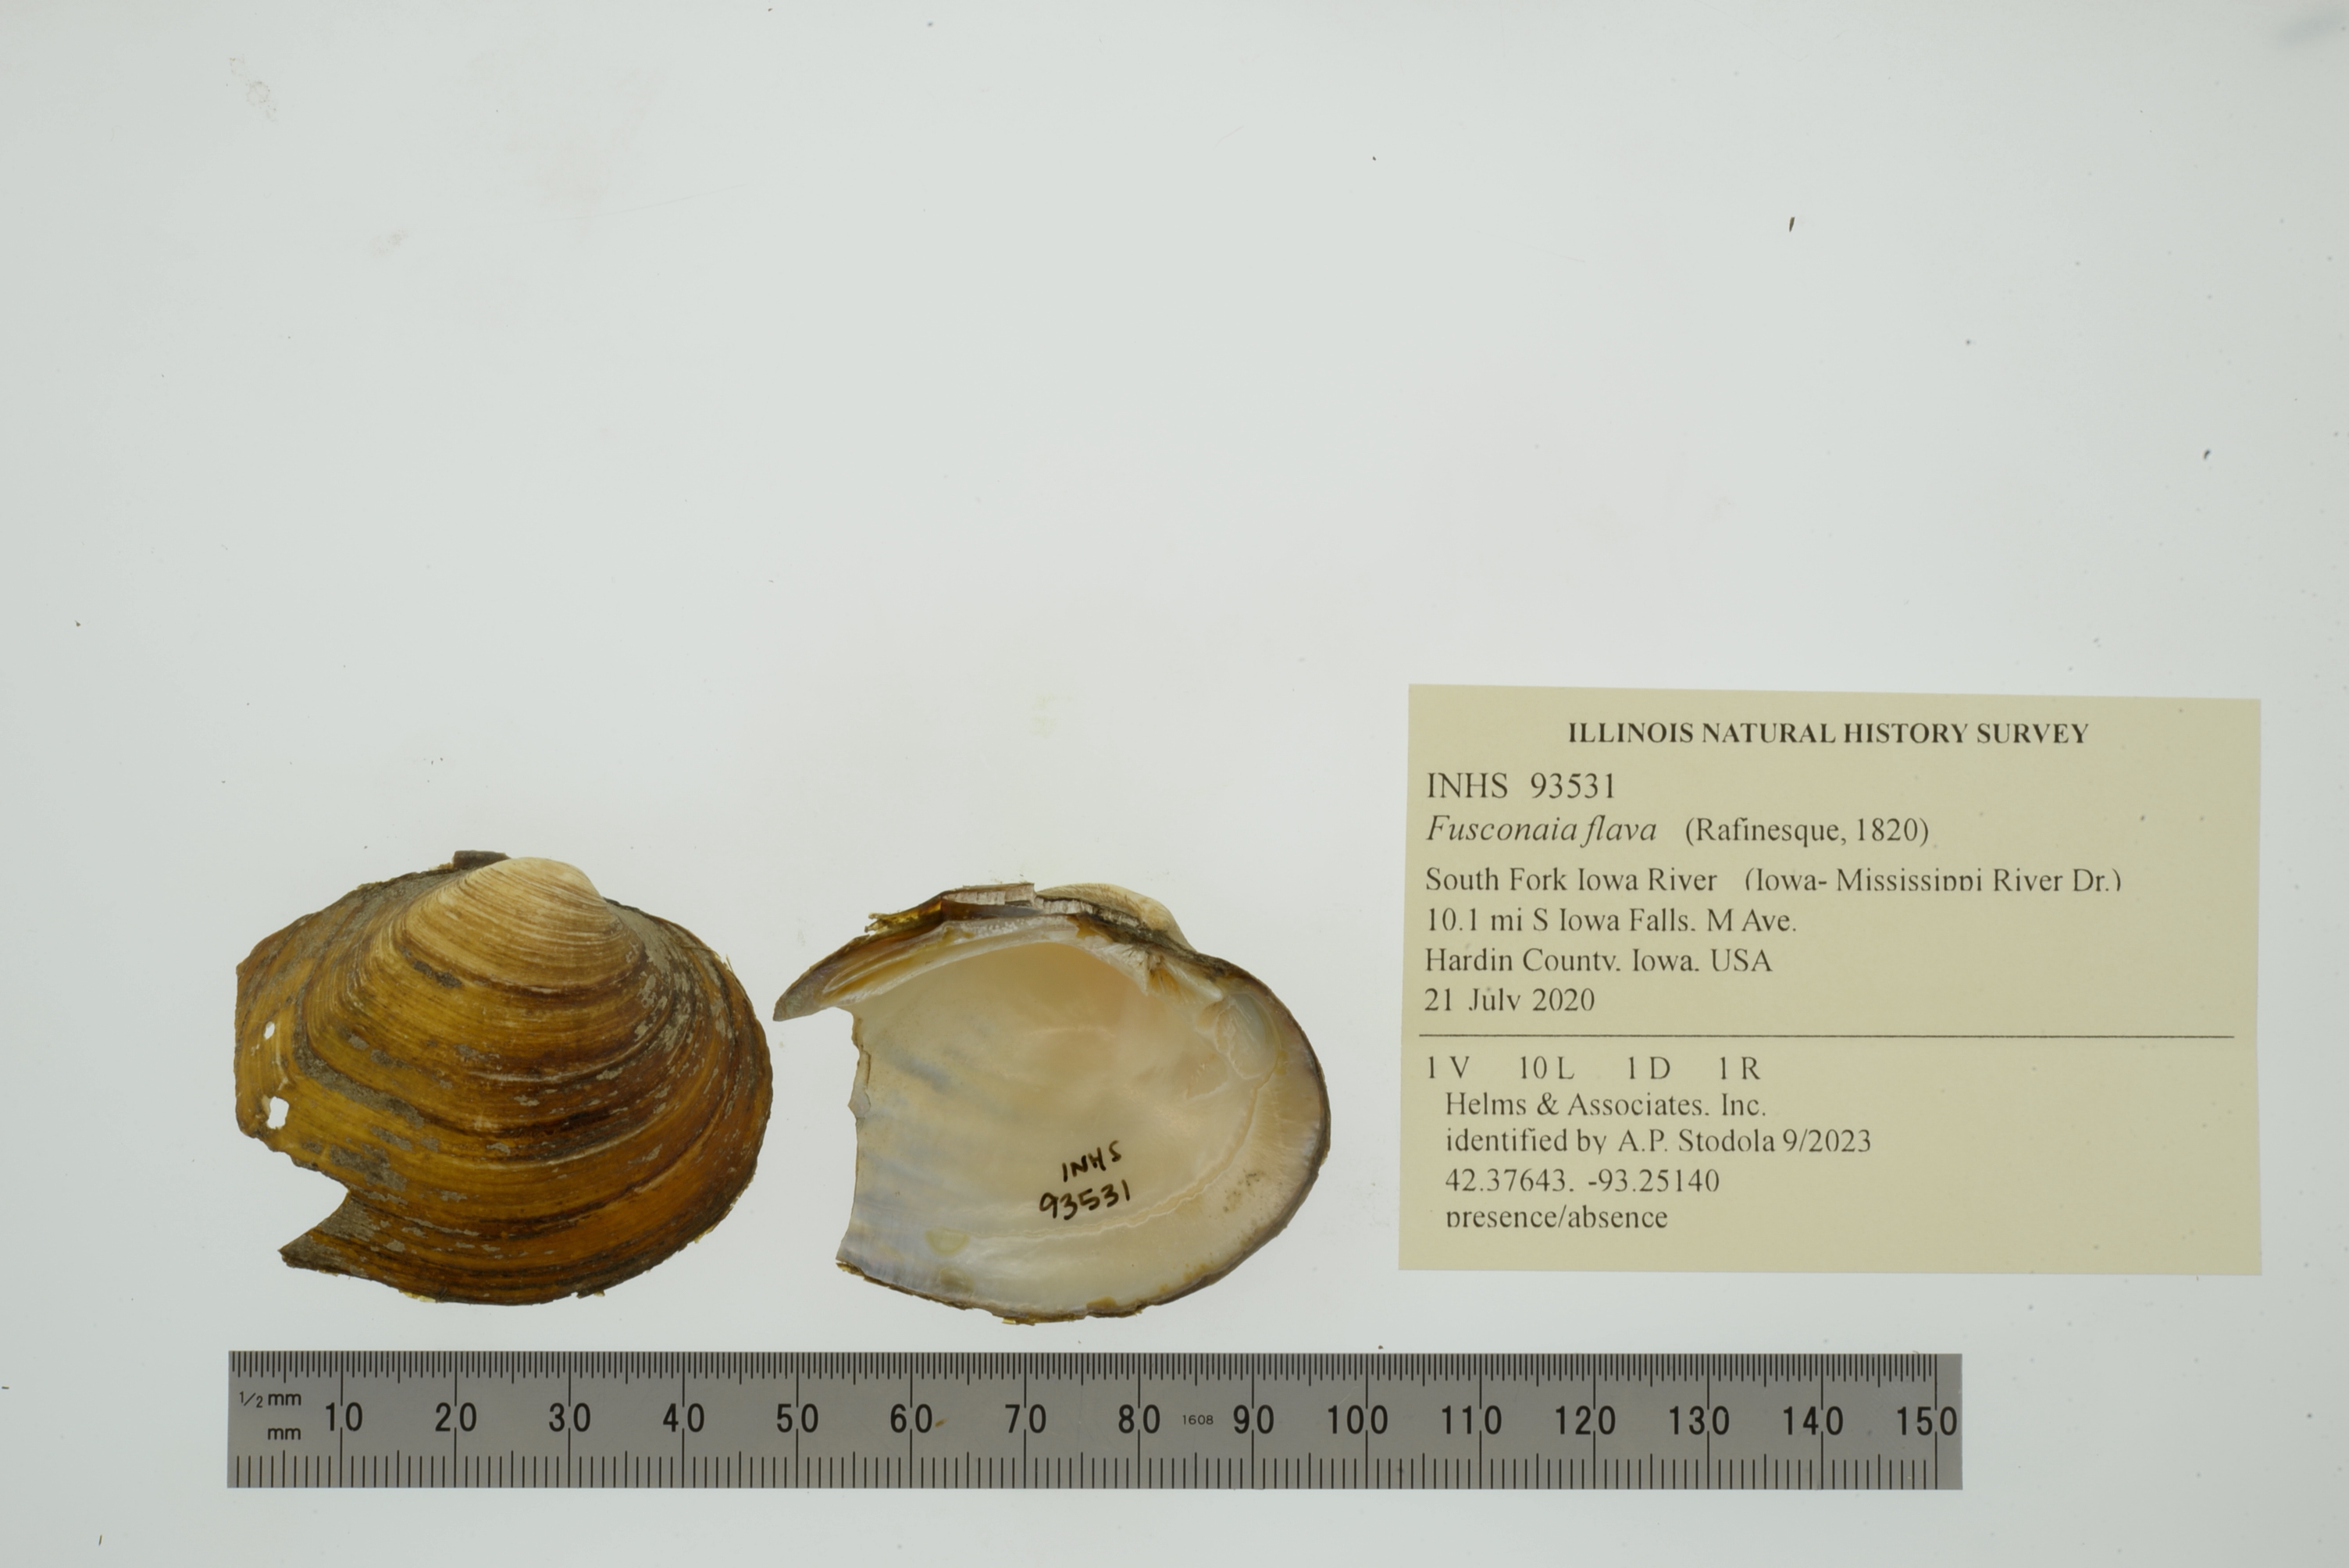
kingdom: Animalia
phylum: Mollusca
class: Bivalvia
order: Unionida
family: Unionidae
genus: Fusconaia
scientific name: Fusconaia flava
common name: Wabash pigtoe
